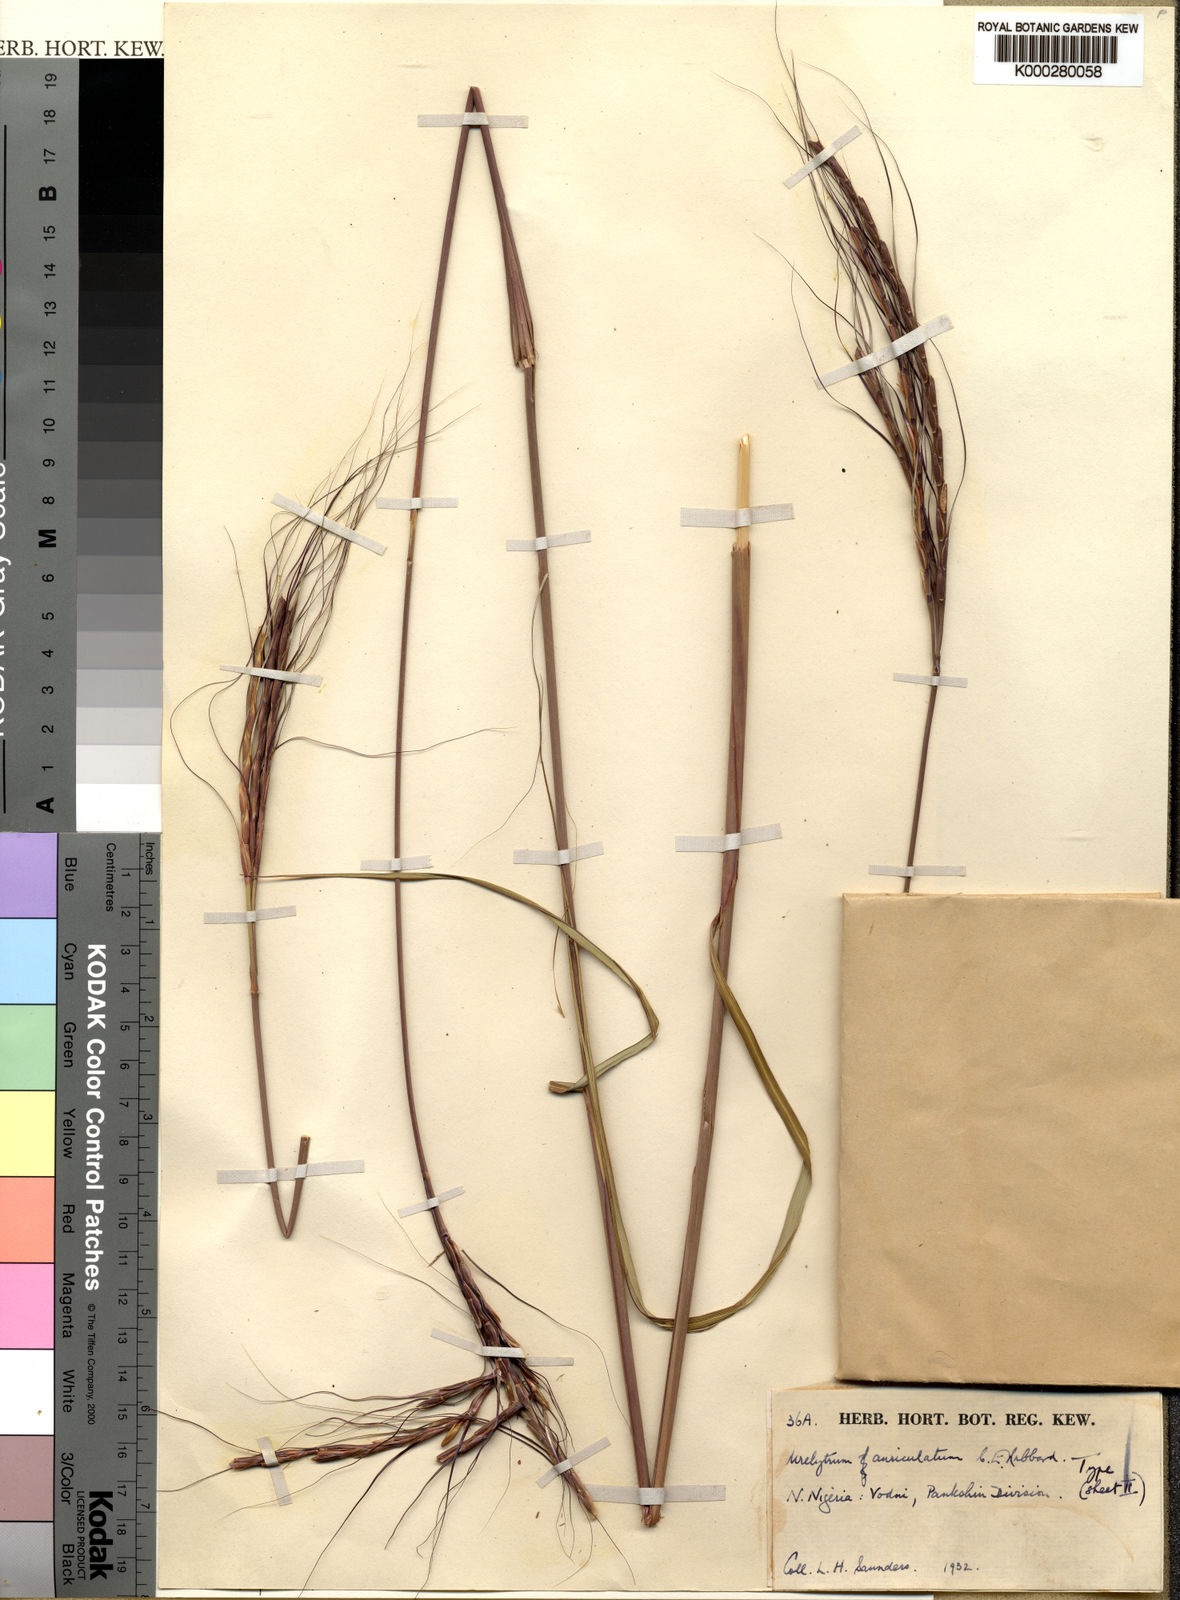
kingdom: Plantae
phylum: Tracheophyta
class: Liliopsida
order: Poales
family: Poaceae
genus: Urelytrum
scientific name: Urelytrum auriculatum
